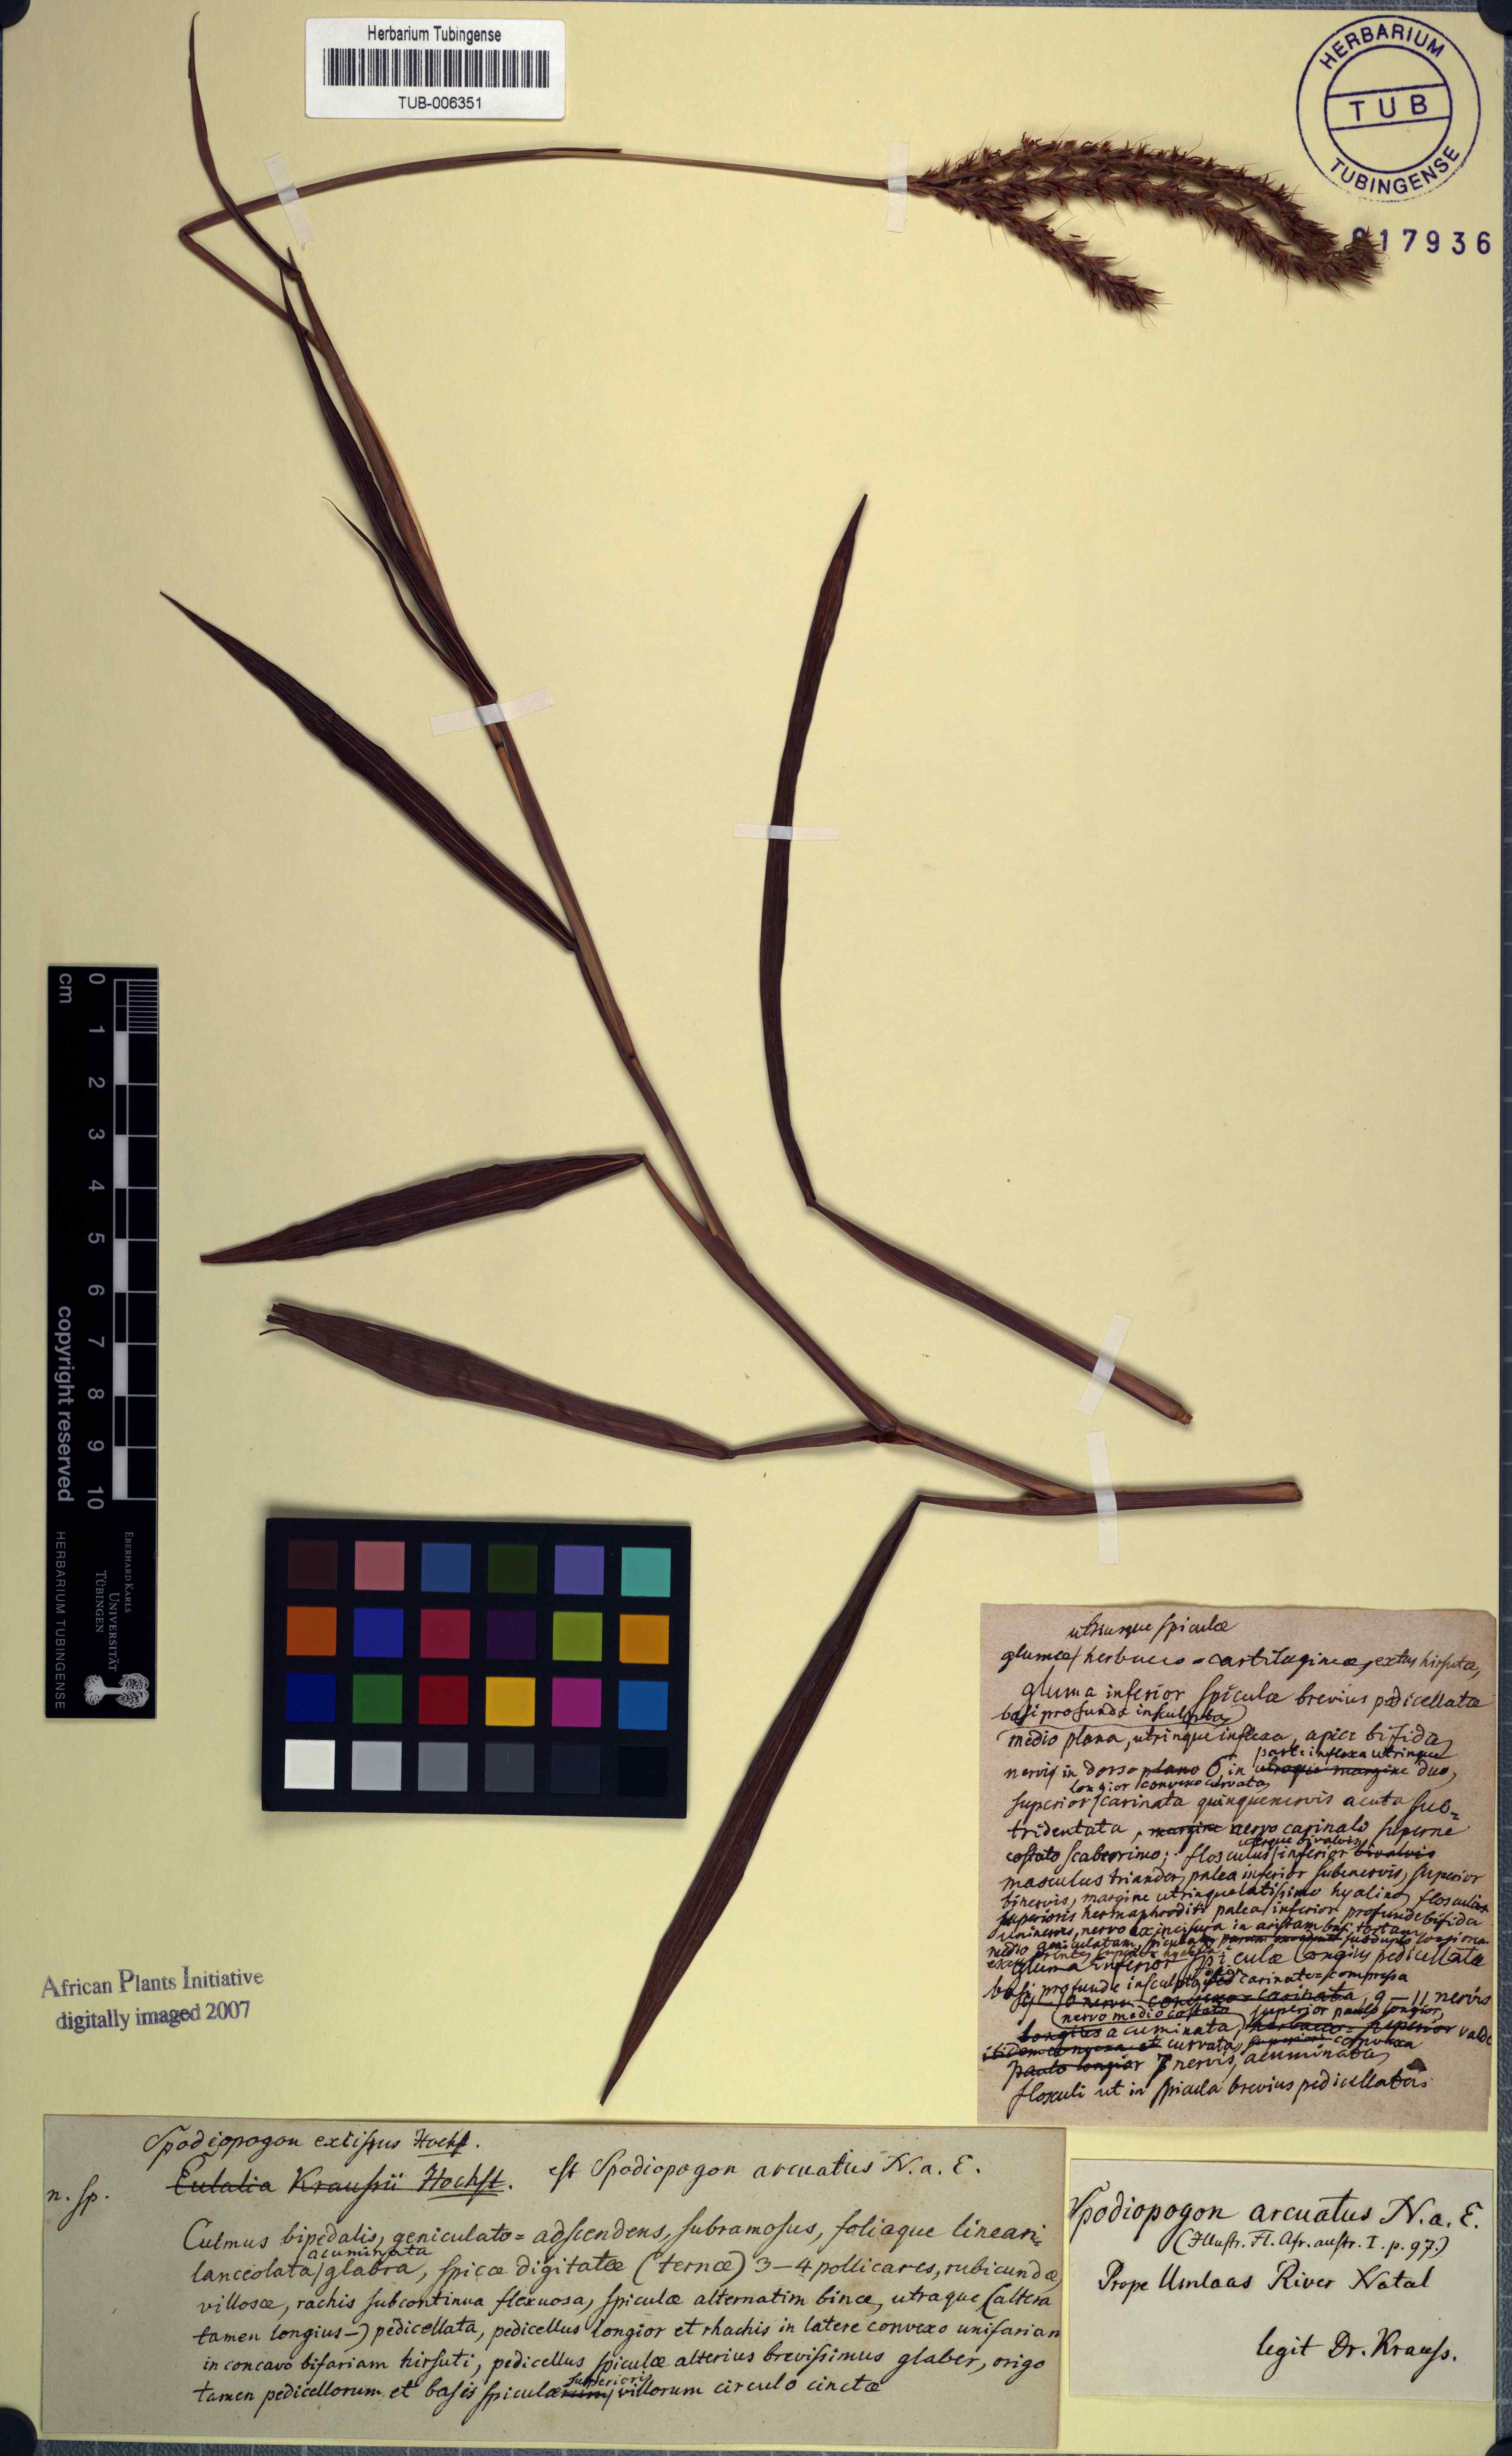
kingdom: Plantae
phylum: Tracheophyta
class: Liliopsida
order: Poales
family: Poaceae
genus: Ischaemum
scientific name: Ischaemum polystachyum
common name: Paddle grass
